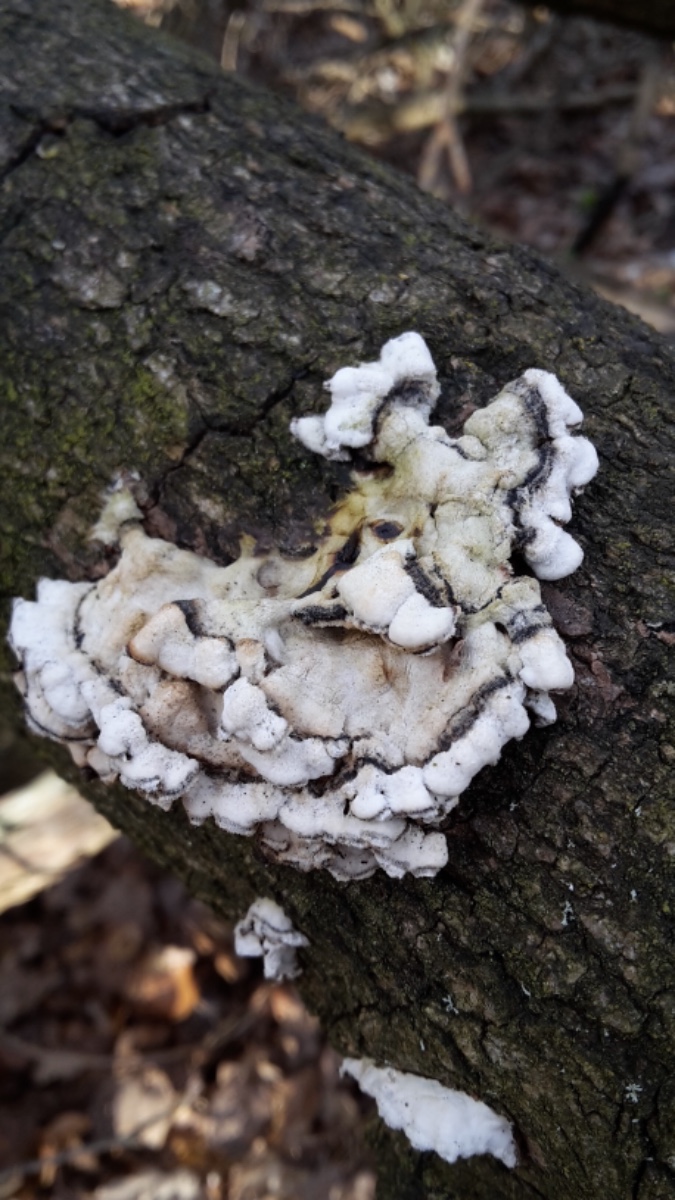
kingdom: Fungi
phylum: Basidiomycota
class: Agaricomycetes
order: Agaricales
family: Cyphellaceae
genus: Chondrostereum
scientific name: Chondrostereum purpureum
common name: purpurlædersvamp
